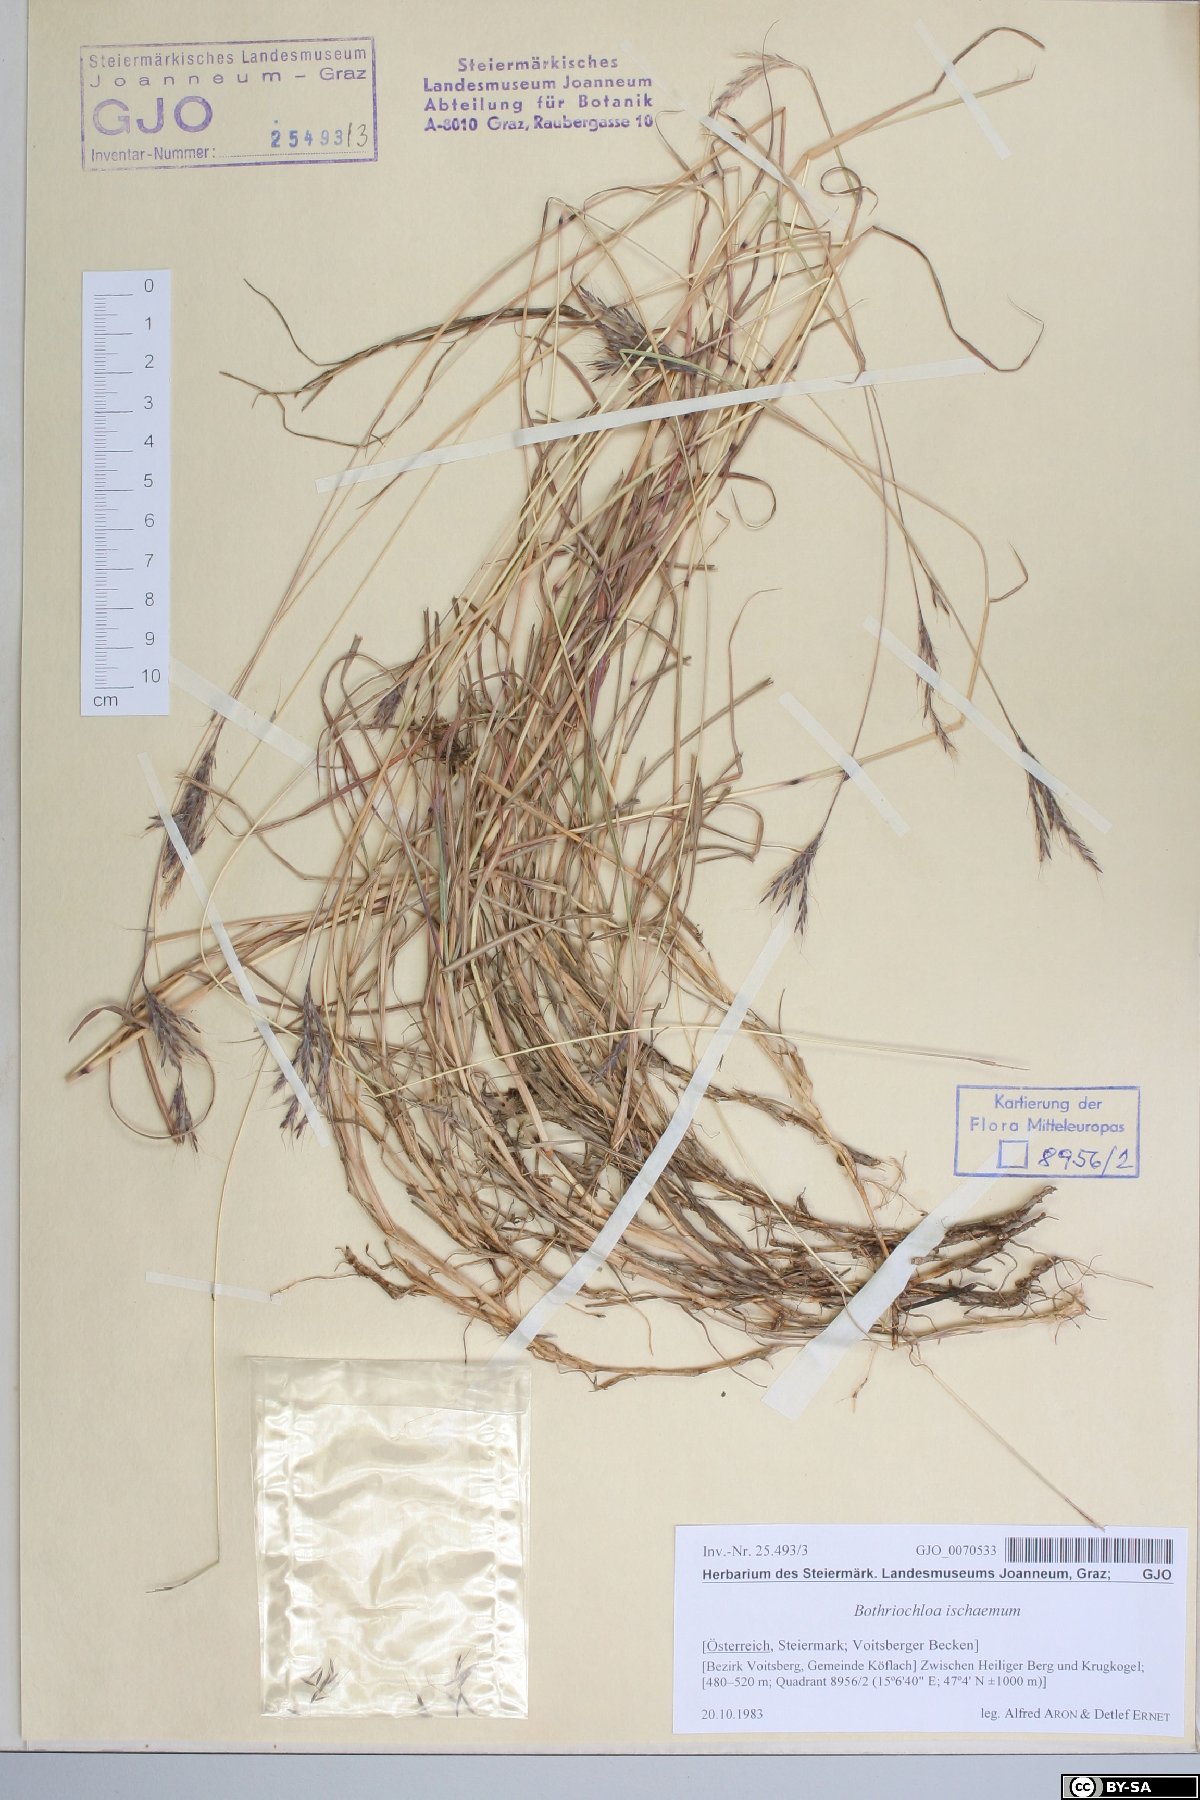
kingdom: Plantae
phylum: Tracheophyta
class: Liliopsida
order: Poales
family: Poaceae
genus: Bothriochloa
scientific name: Bothriochloa ischaemum
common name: Yellow bluestem
